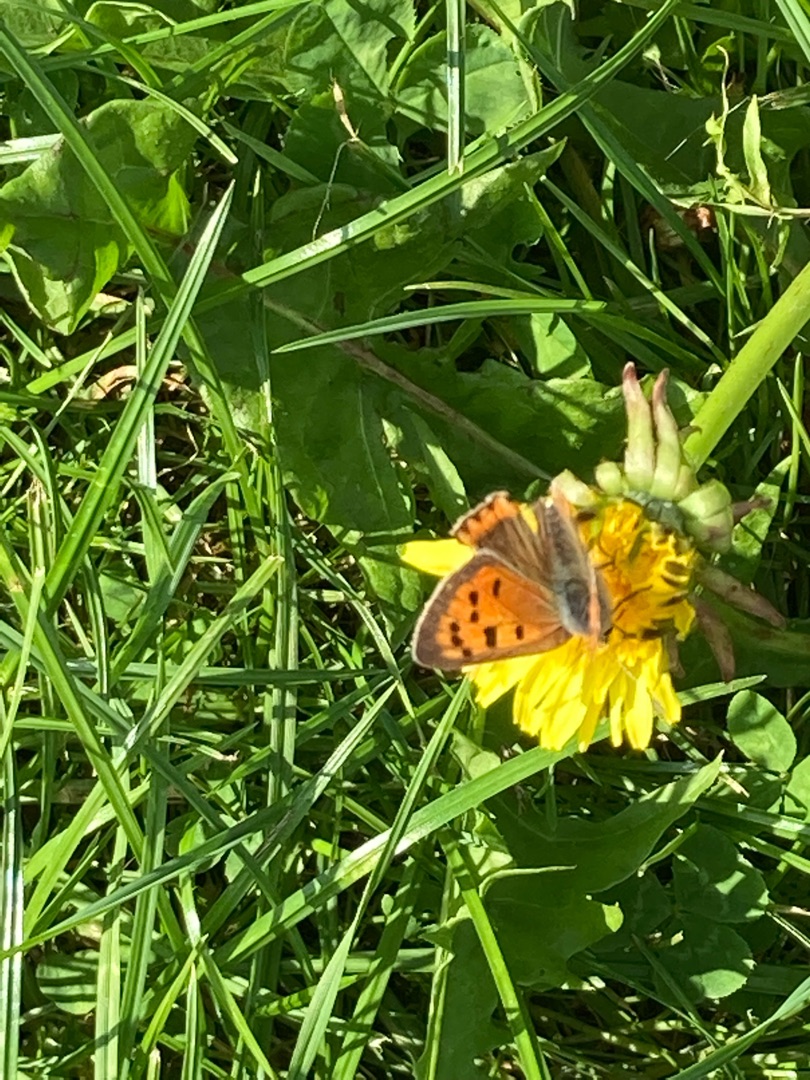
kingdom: Animalia
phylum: Arthropoda
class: Insecta
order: Lepidoptera
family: Lycaenidae
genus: Lycaena
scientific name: Lycaena phlaeas
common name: Lille ildfugl
